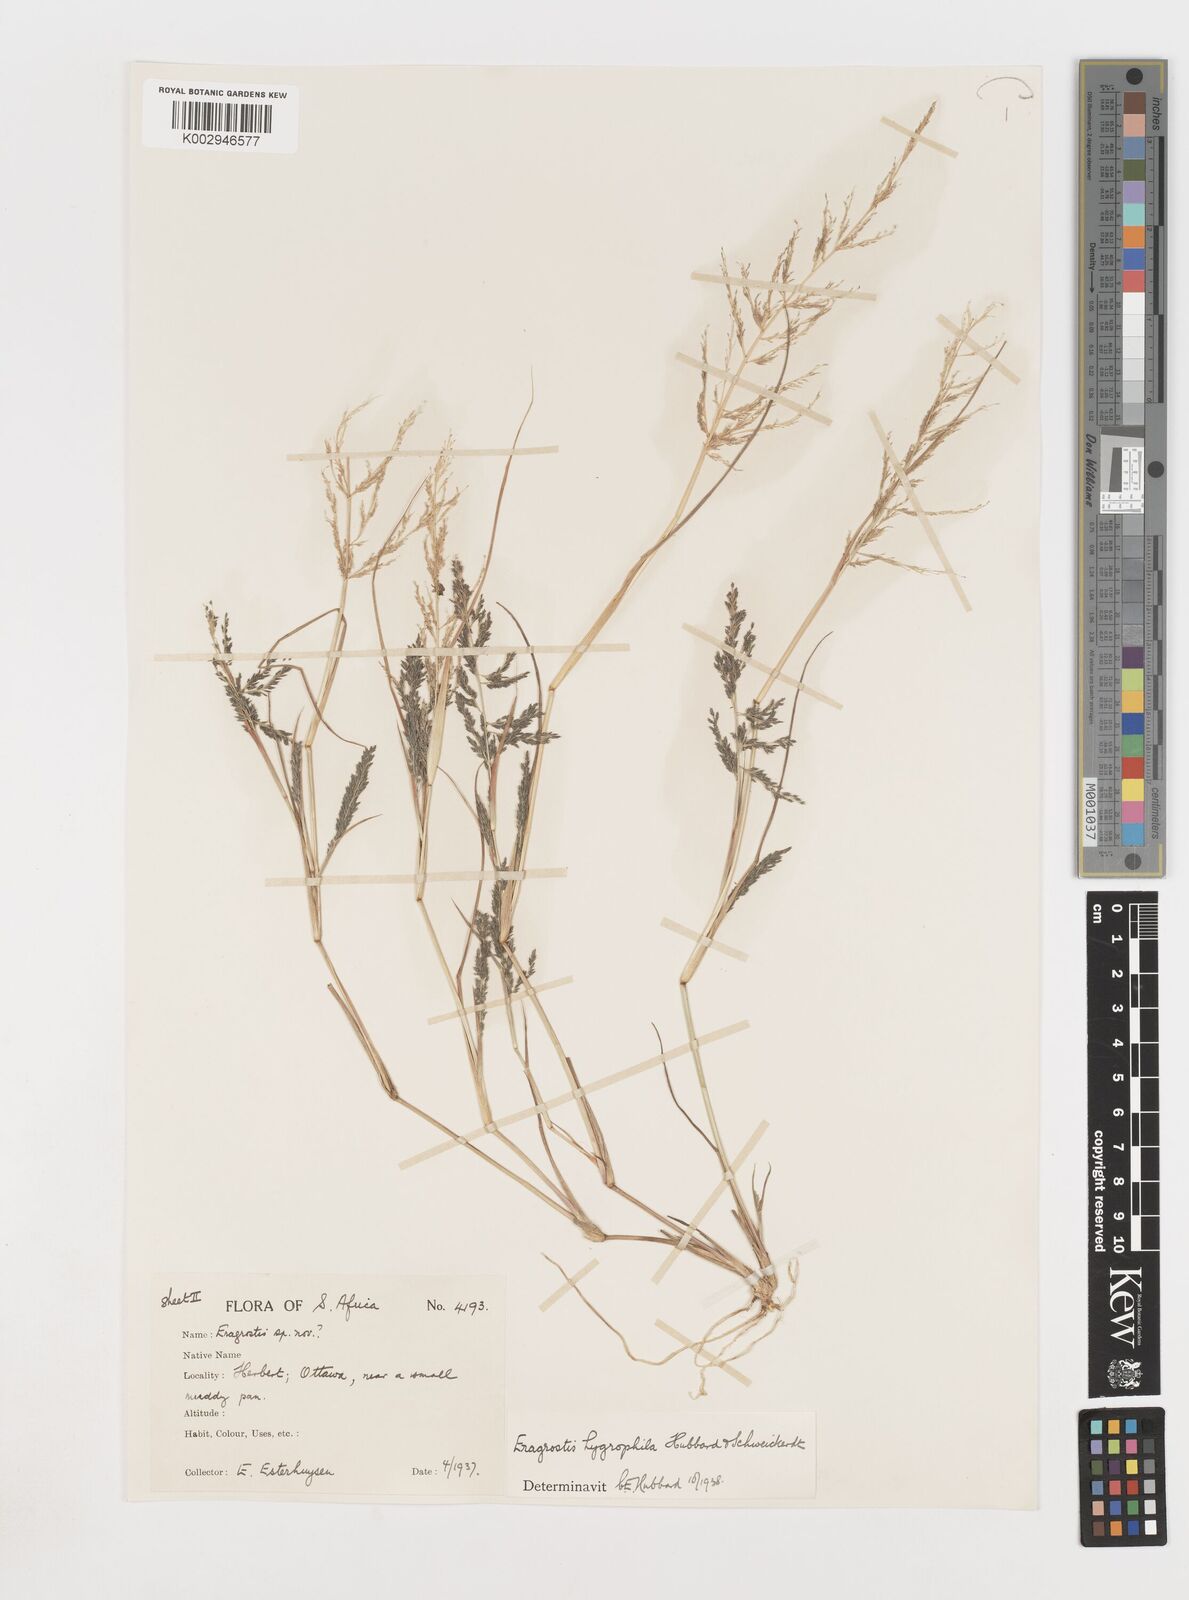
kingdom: Plantae
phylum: Tracheophyta
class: Liliopsida
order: Poales
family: Poaceae
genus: Eragrostis
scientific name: Eragrostis homomalla
